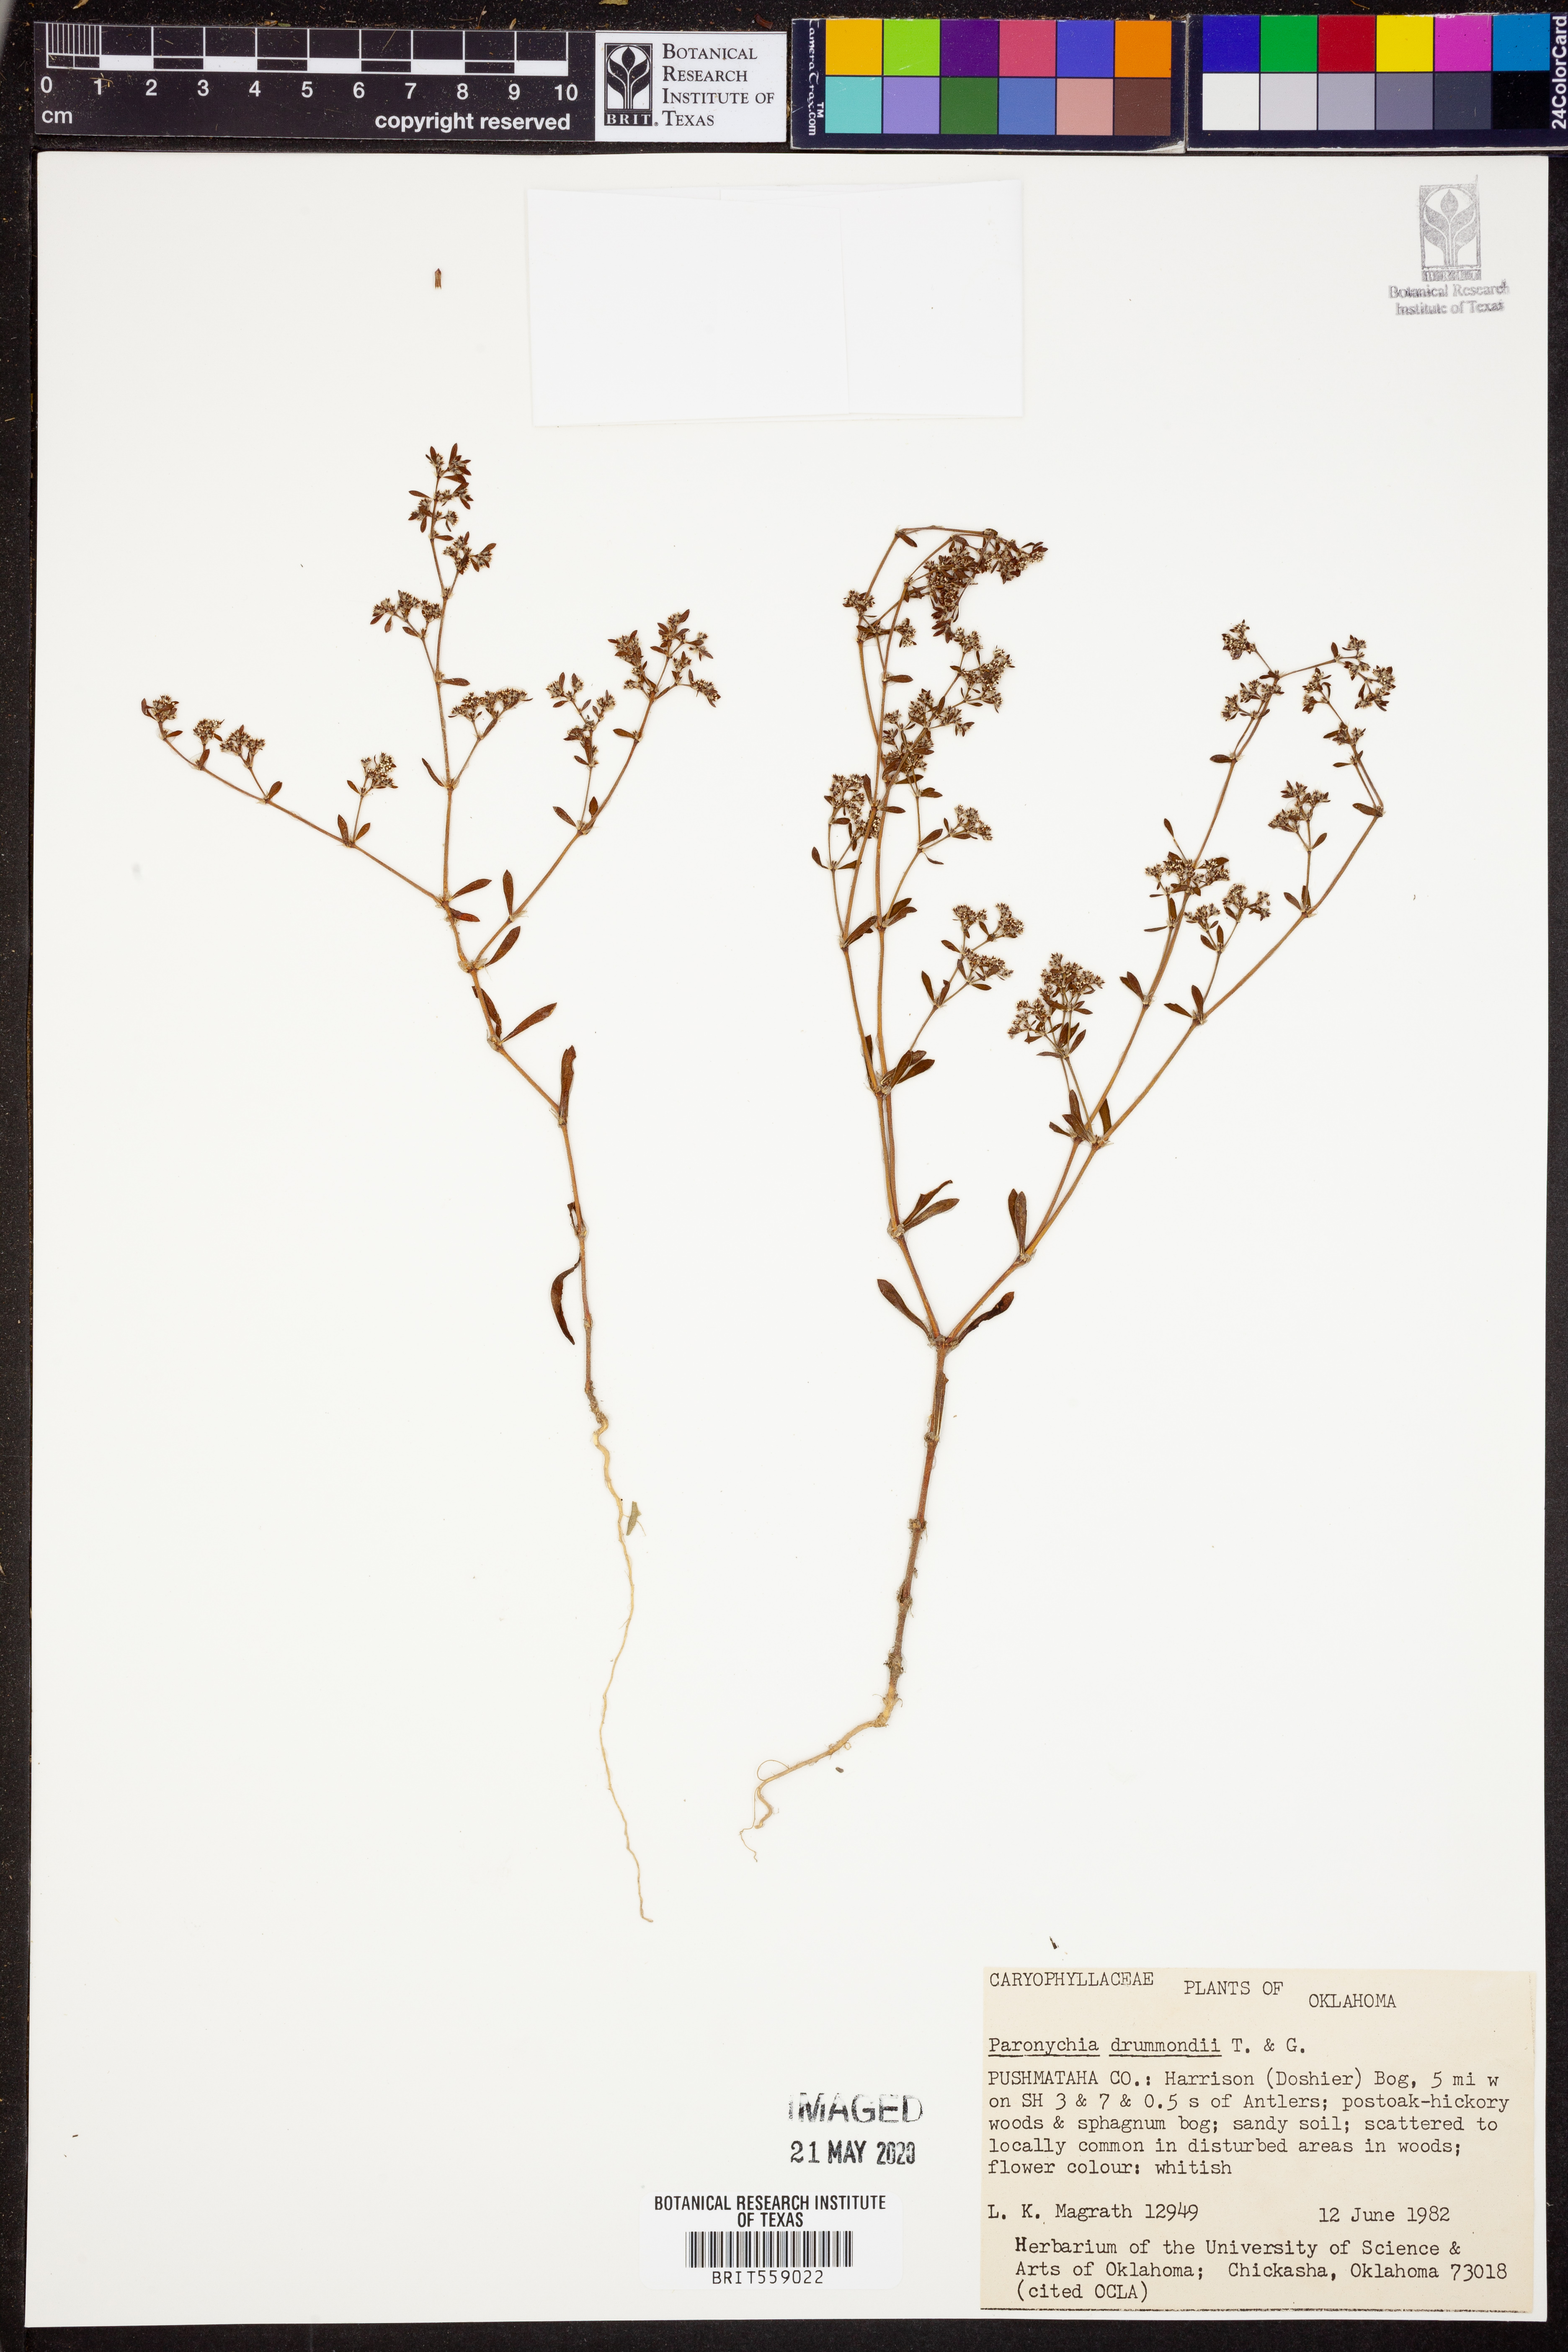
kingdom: Plantae
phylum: Tracheophyta
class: Magnoliopsida
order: Caryophyllales
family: Caryophyllaceae
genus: Paronychia
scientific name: Paronychia drummondii
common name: Drummond's nailwort
